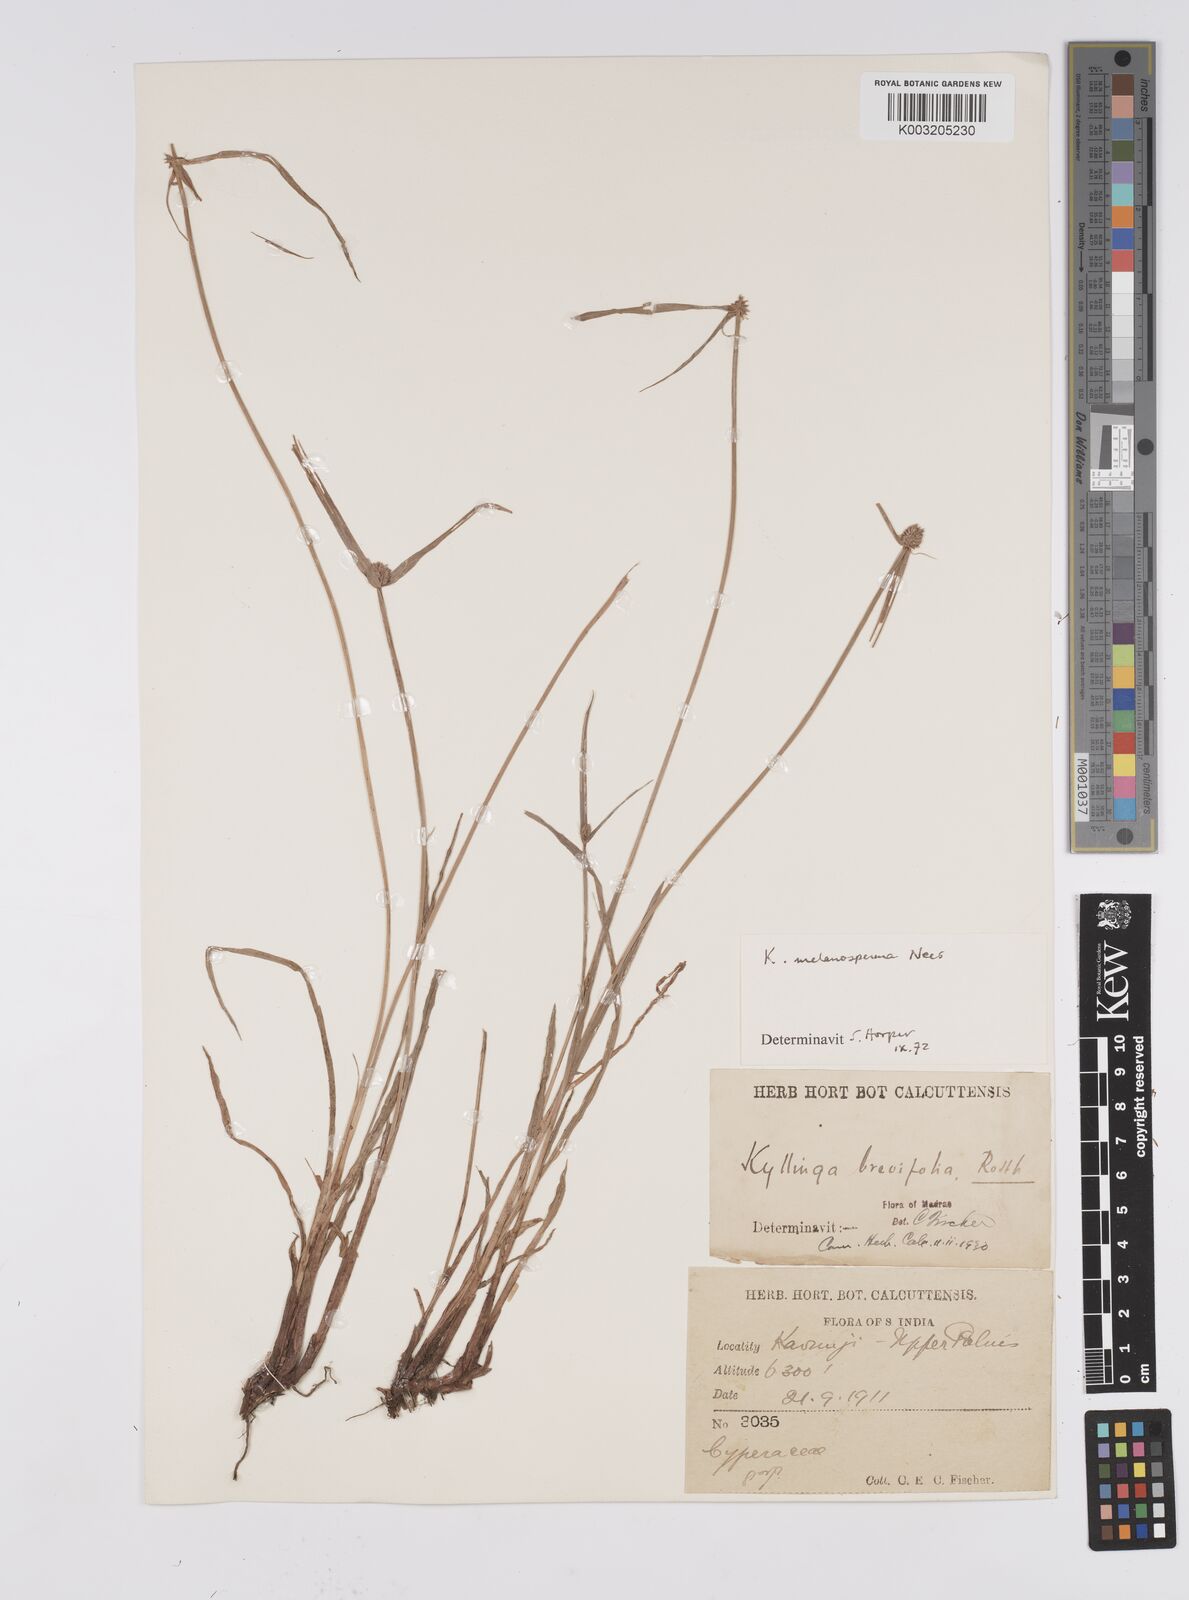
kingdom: Plantae
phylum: Tracheophyta
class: Liliopsida
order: Poales
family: Cyperaceae
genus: Cyperus
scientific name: Cyperus melanospermus
